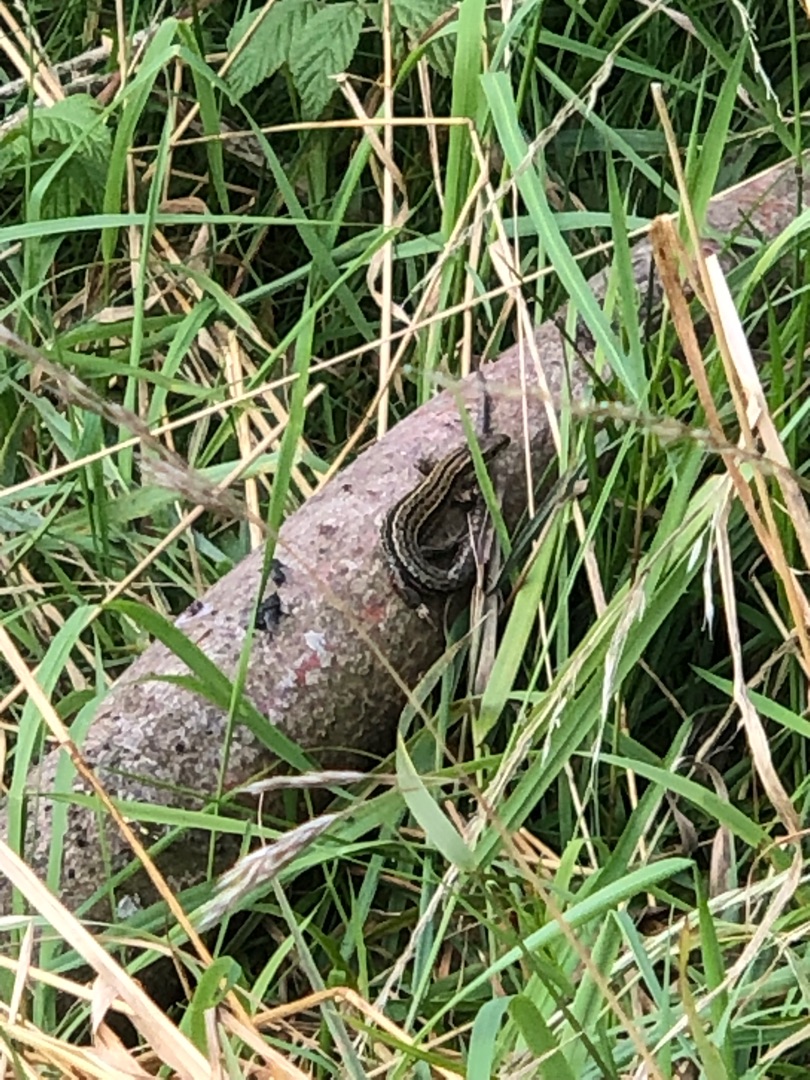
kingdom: Animalia
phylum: Chordata
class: Squamata
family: Lacertidae
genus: Zootoca
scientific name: Zootoca vivipara
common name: Skovfirben
